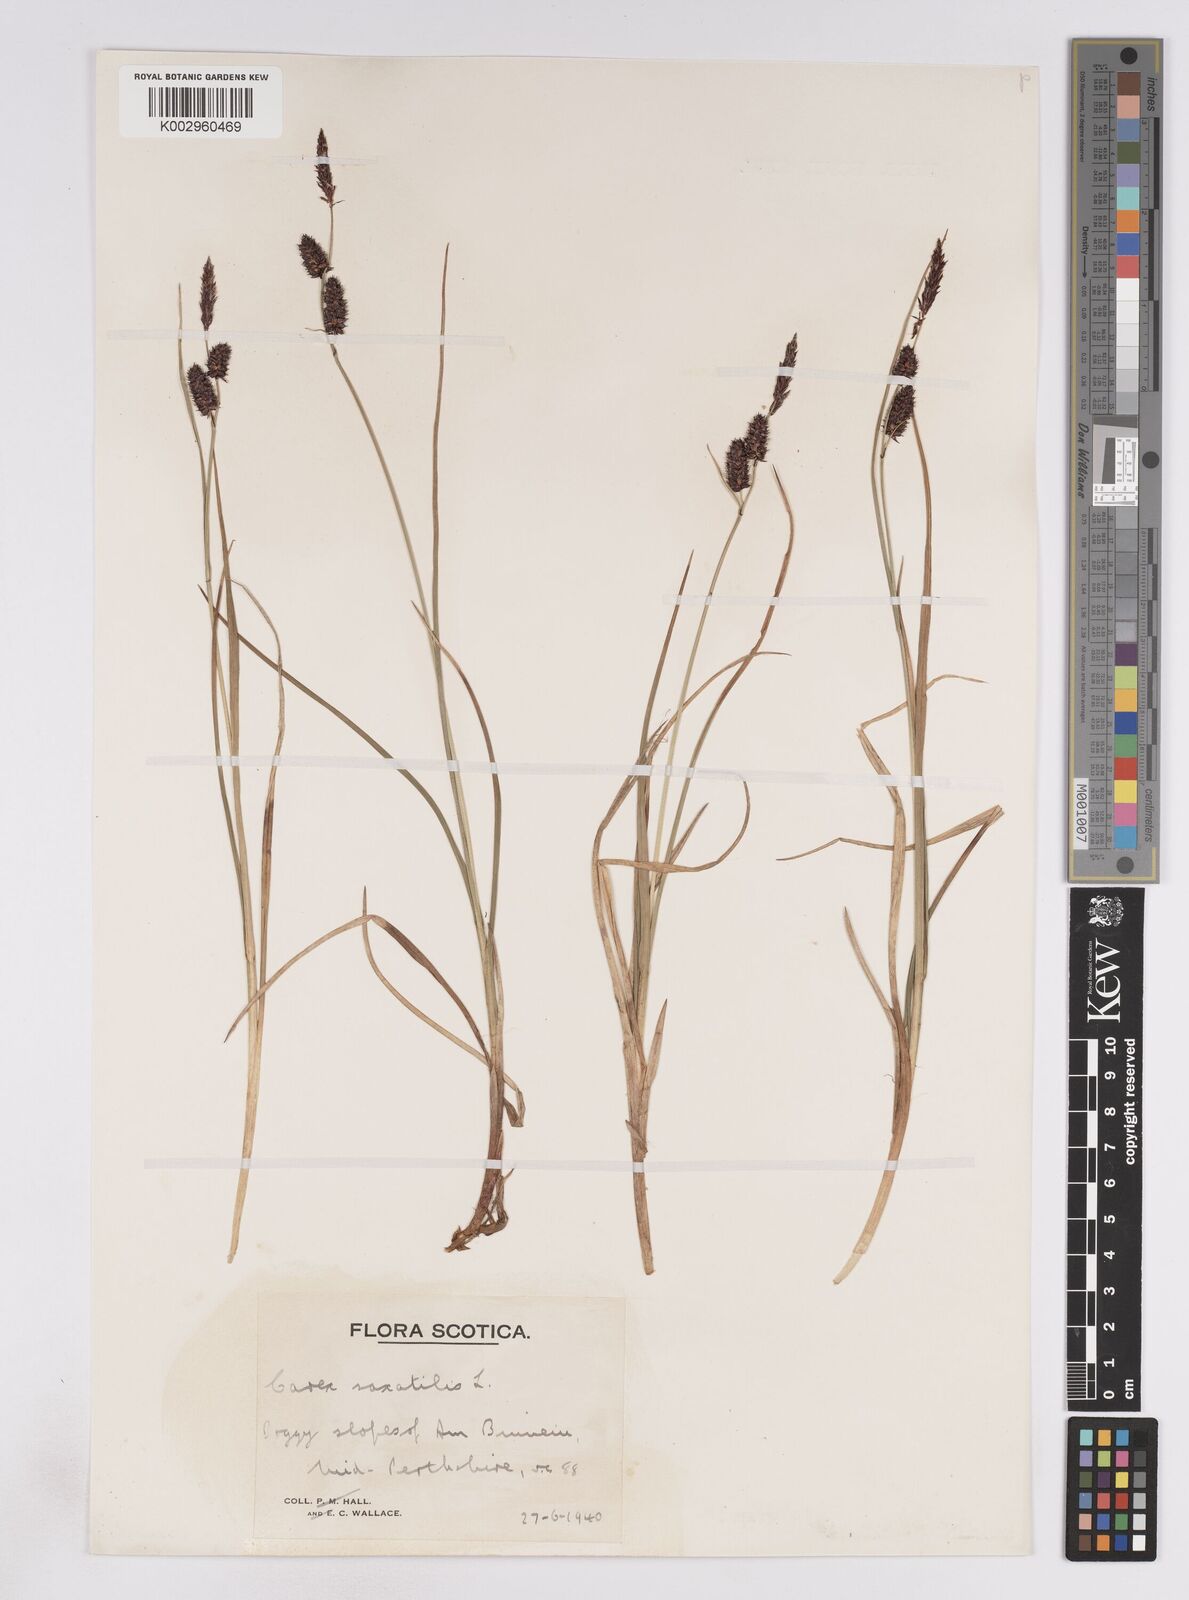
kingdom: Plantae
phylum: Tracheophyta
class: Liliopsida
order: Poales
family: Cyperaceae
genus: Carex
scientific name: Carex saxatilis
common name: Russet sedge
